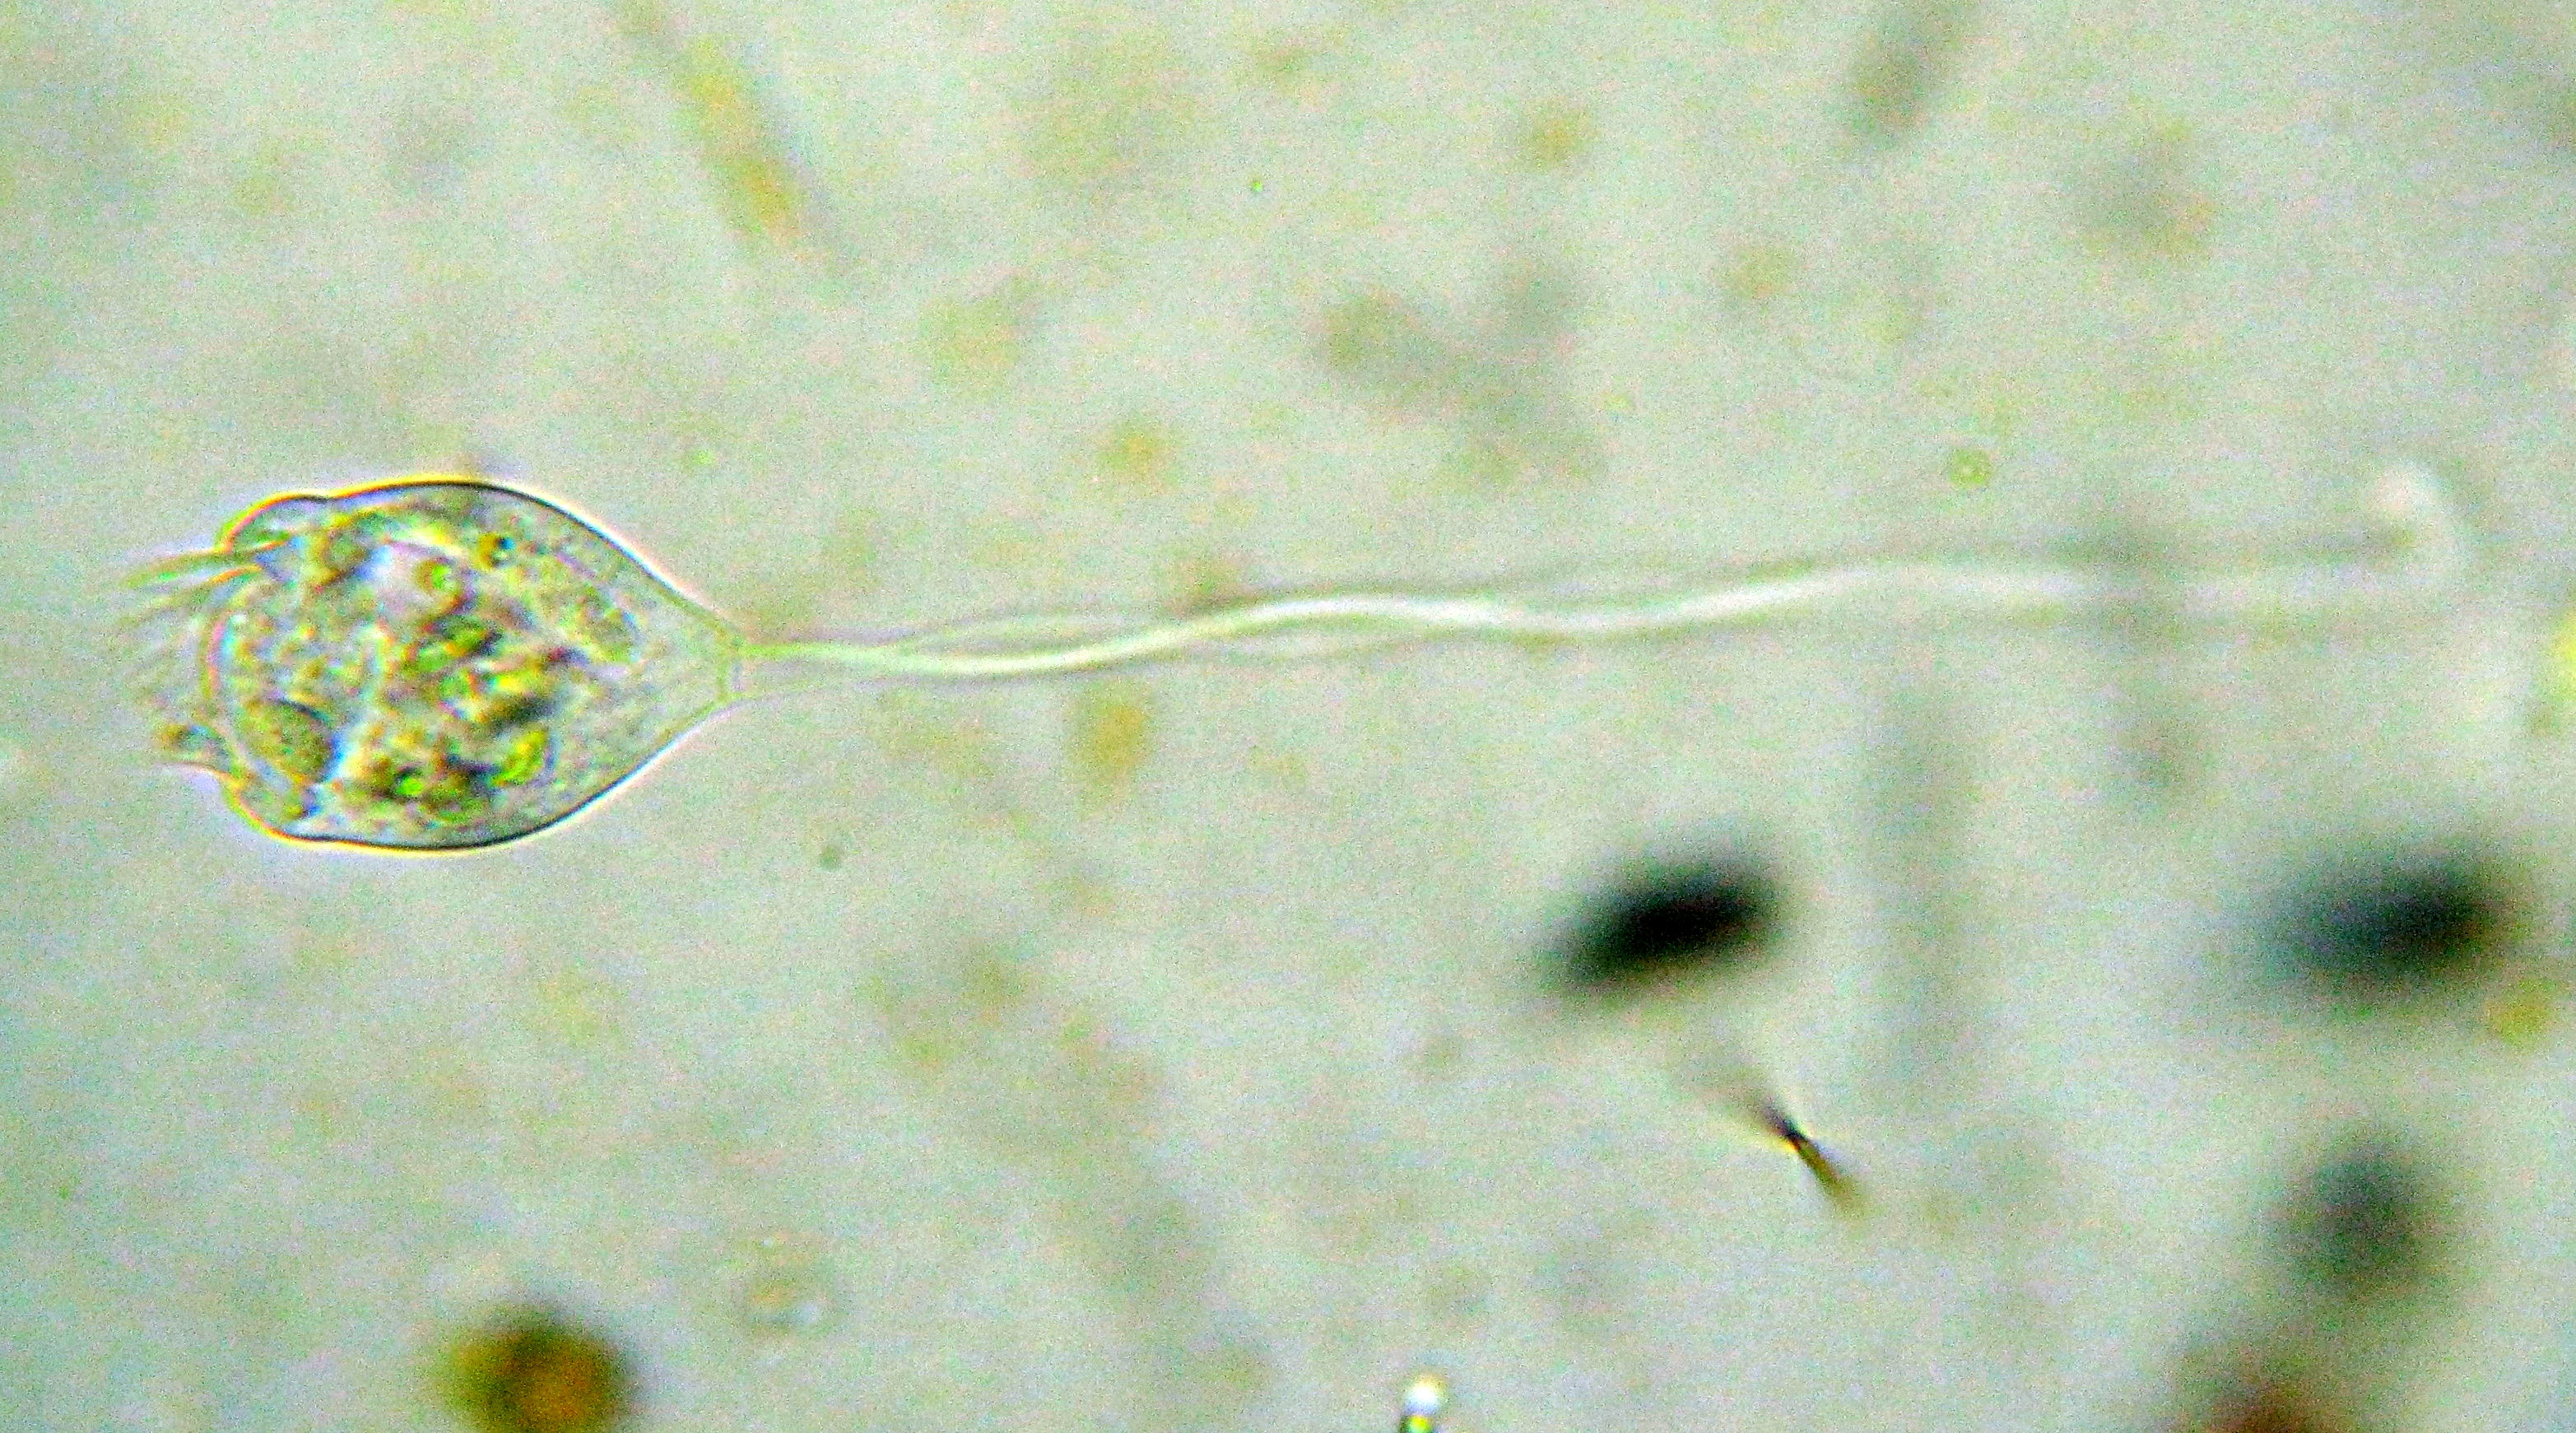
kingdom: Chromista
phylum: Ciliophora
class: Oligohymenophorea
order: Peritrichida
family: Vorticellidae
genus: Vorticella
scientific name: Vorticella
